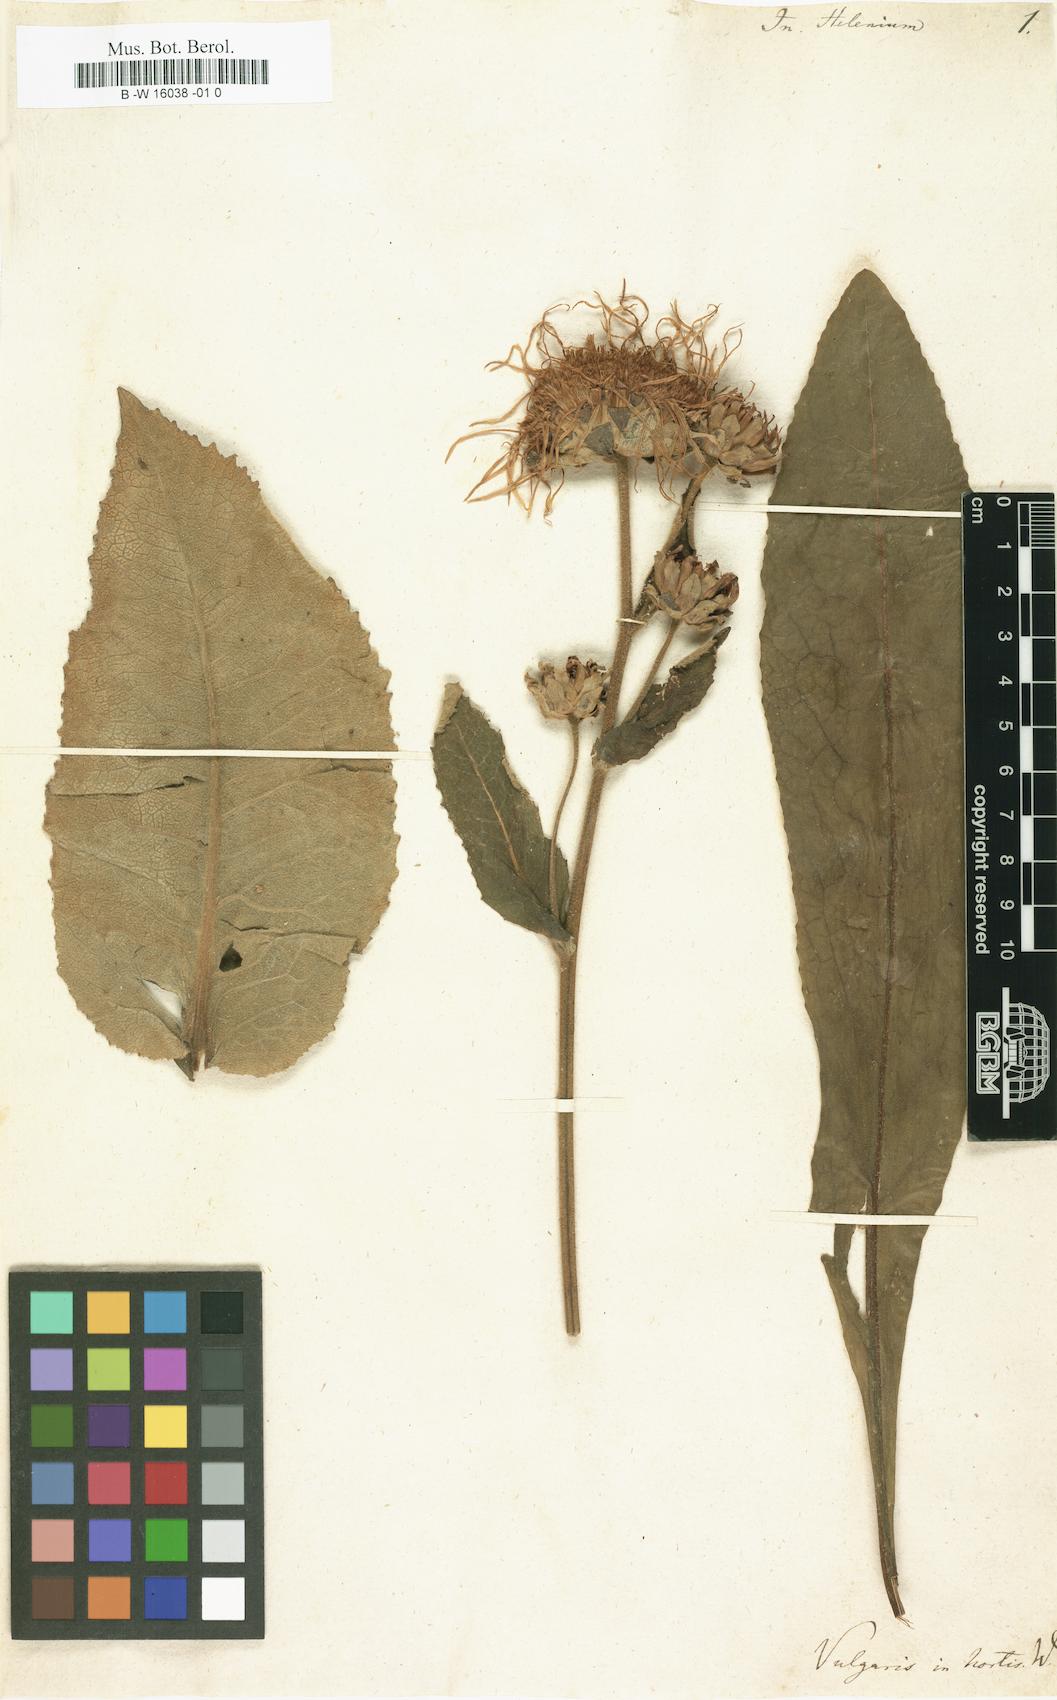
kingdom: Plantae
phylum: Tracheophyta
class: Magnoliopsida
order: Asterales
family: Asteraceae
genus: Inula
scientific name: Inula helenium
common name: Elecampane
